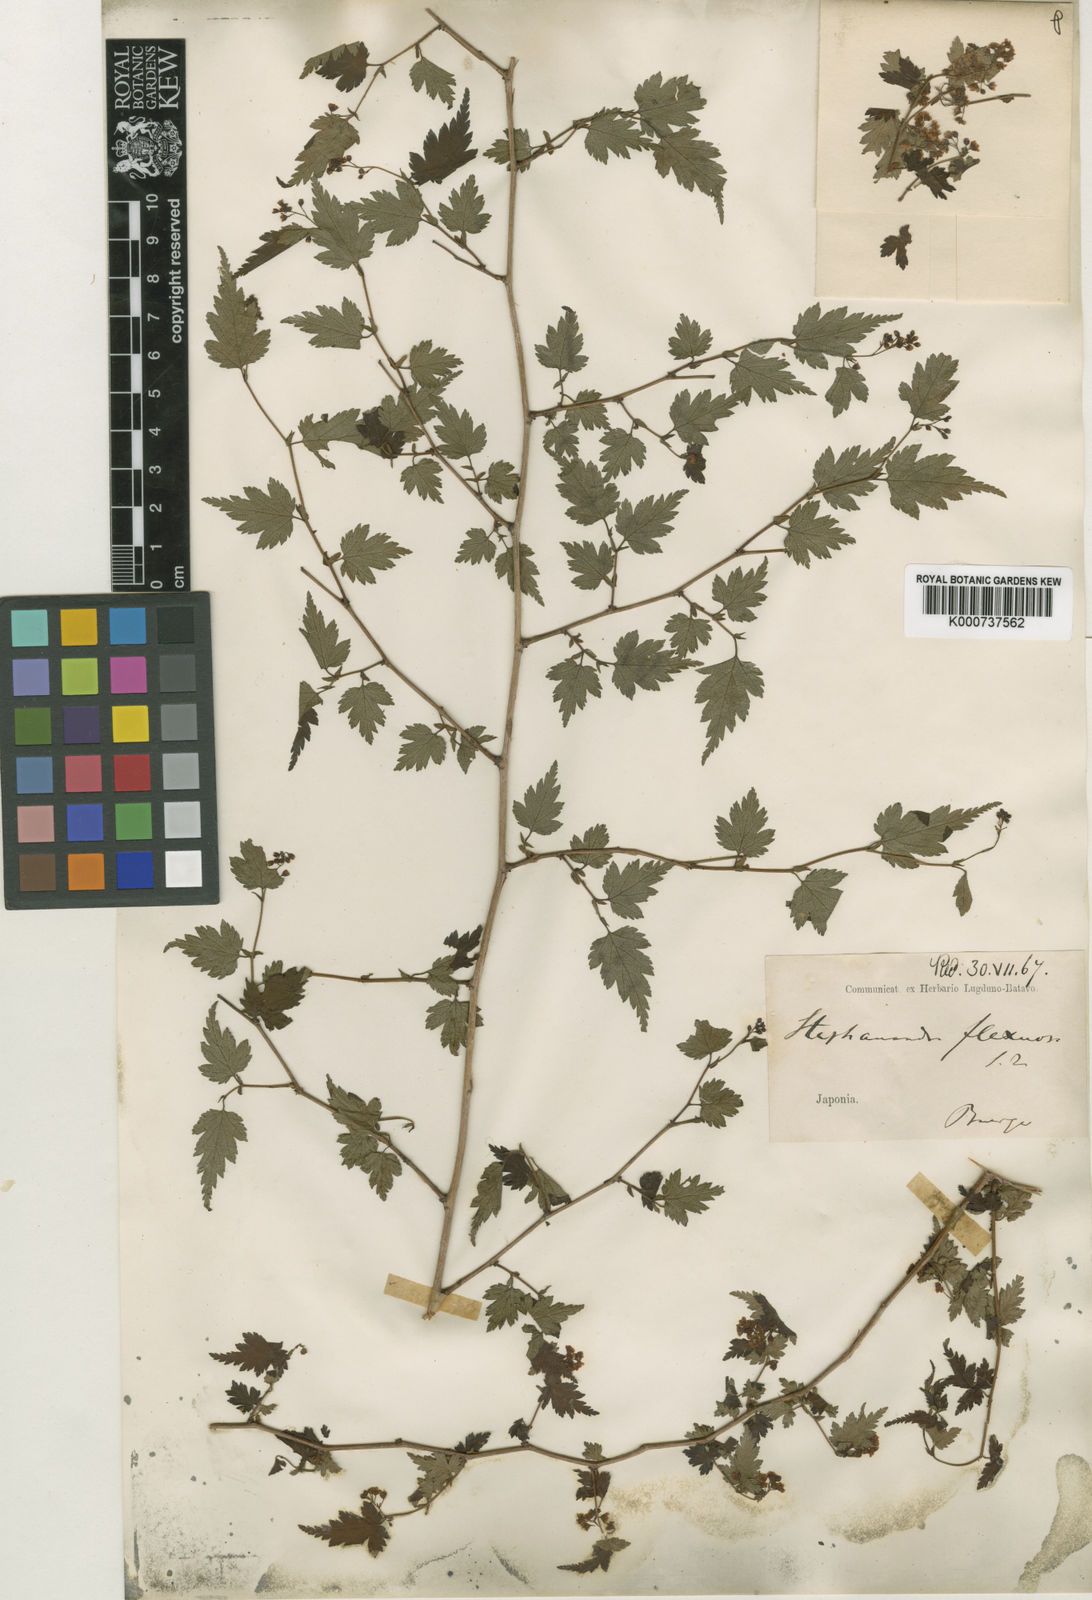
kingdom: Plantae
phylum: Tracheophyta
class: Magnoliopsida
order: Rosales
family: Rosaceae
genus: Neillia
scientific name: Neillia incisa
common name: Laceshrub
